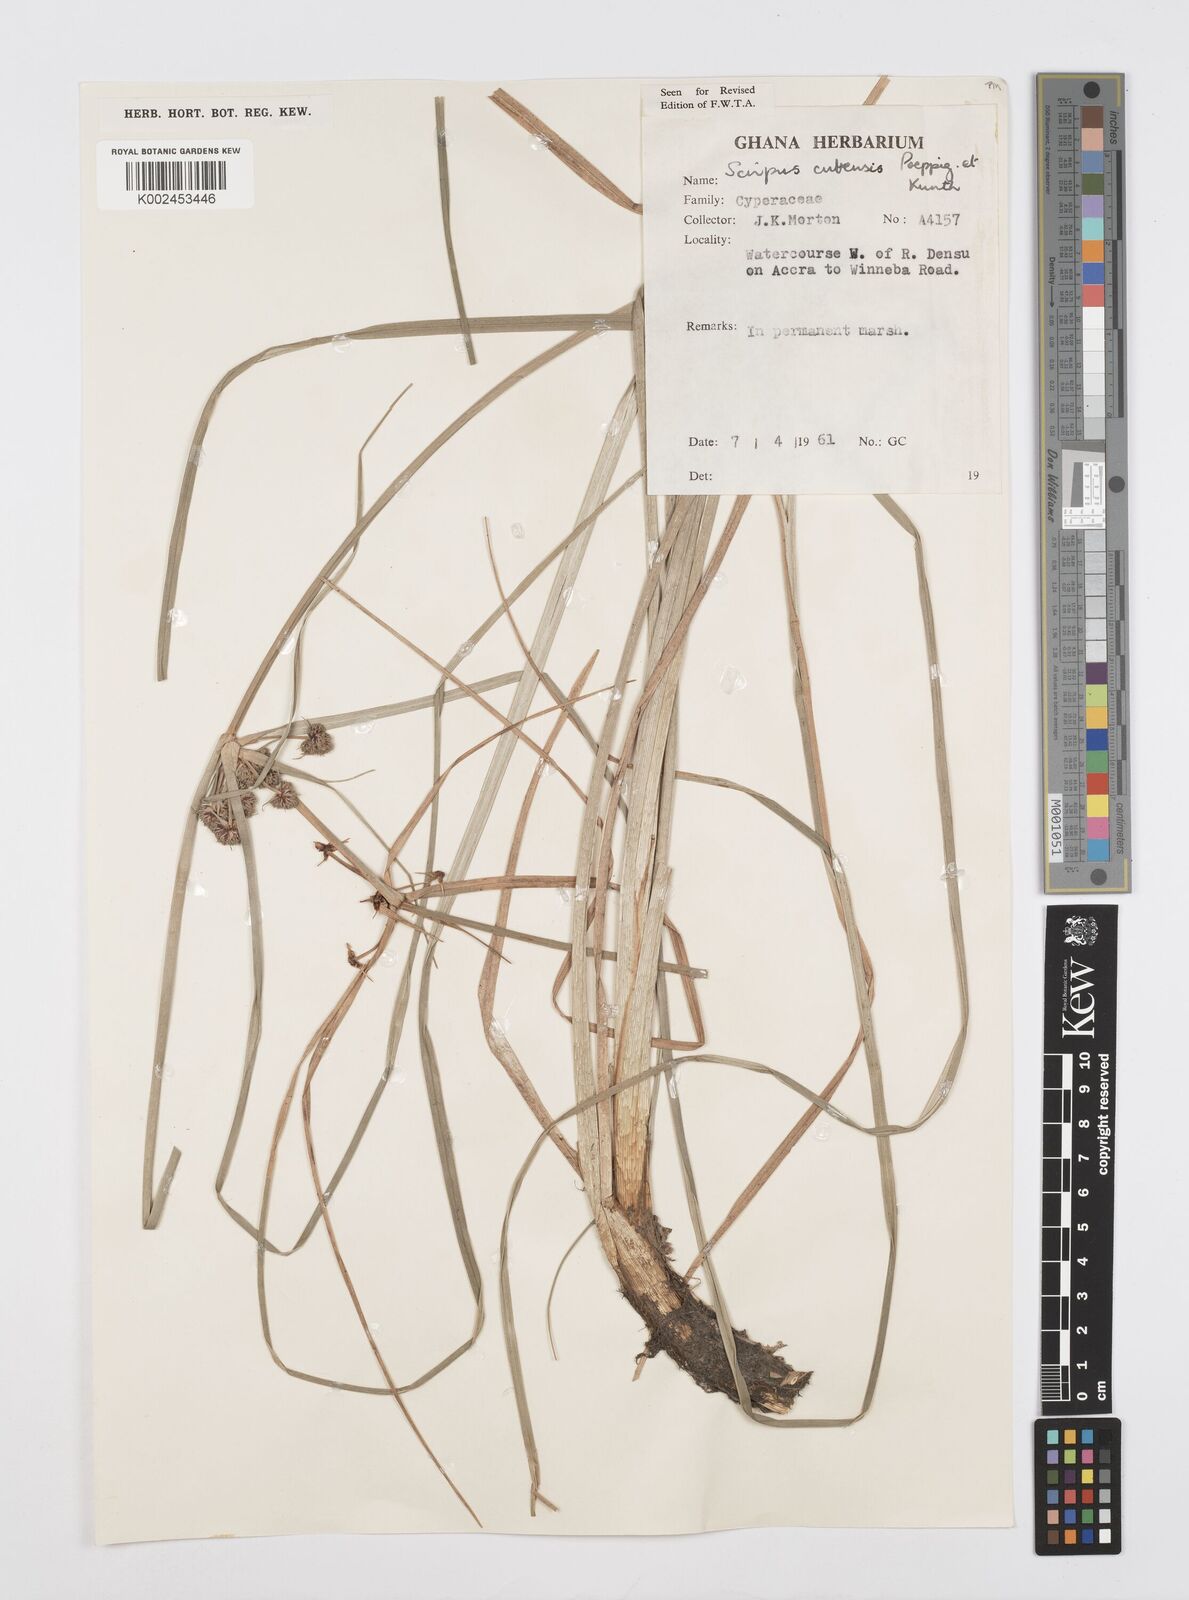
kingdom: Plantae
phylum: Tracheophyta
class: Liliopsida
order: Poales
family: Cyperaceae
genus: Cyperus
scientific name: Cyperus elegans
